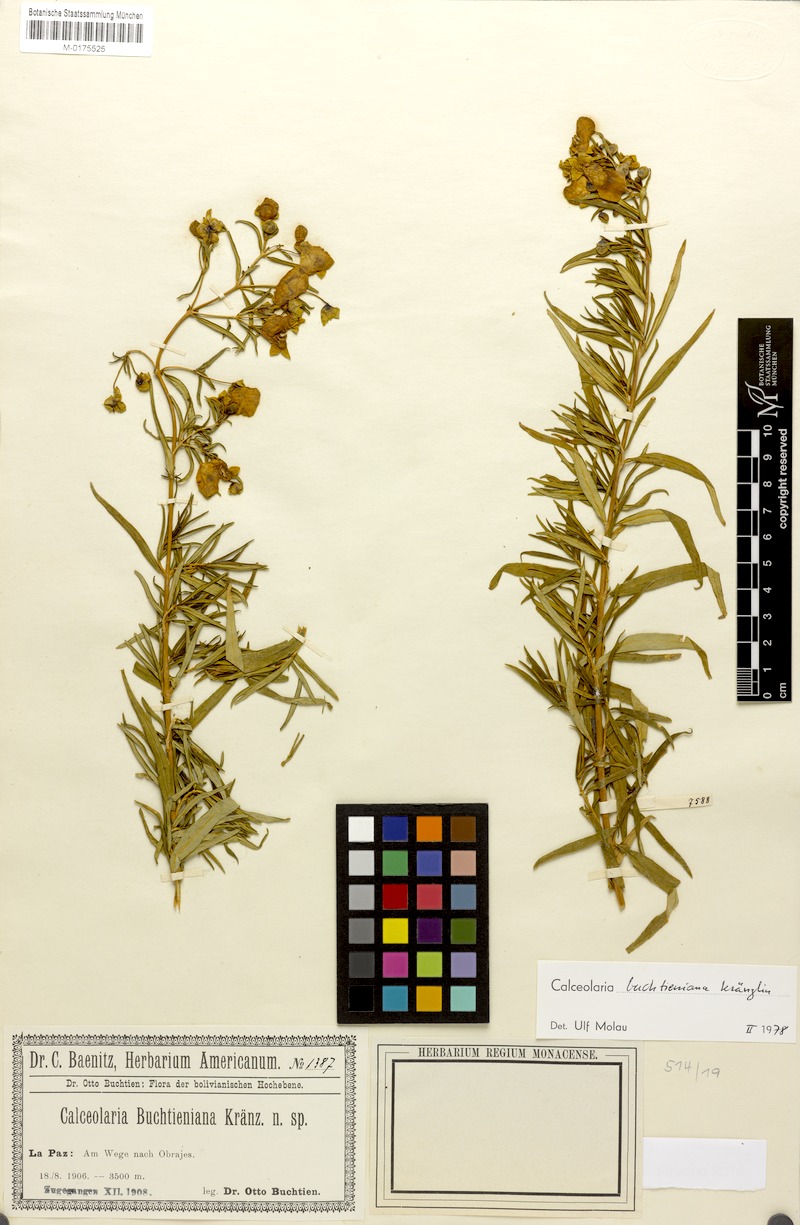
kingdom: Plantae
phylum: Tracheophyta
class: Magnoliopsida
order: Lamiales
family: Calceolariaceae
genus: Calceolaria
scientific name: Calceolaria buchtieniana
